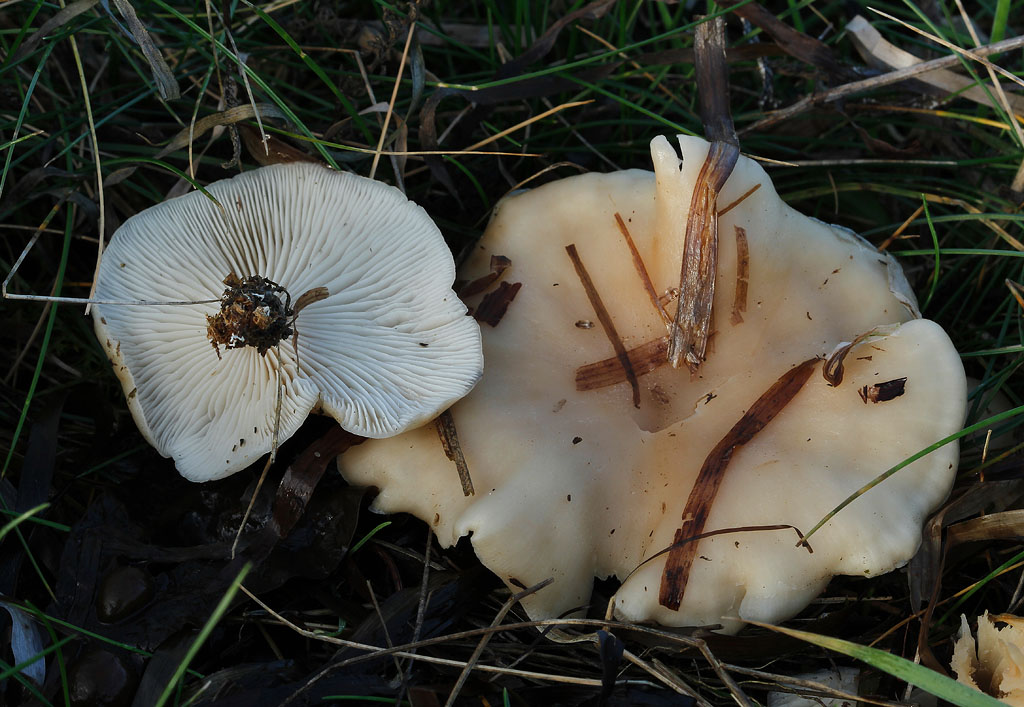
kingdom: Fungi
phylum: Basidiomycota
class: Agaricomycetes
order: Agaricales
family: Tricholomataceae
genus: Clitocybe
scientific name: Clitocybe agrestis
